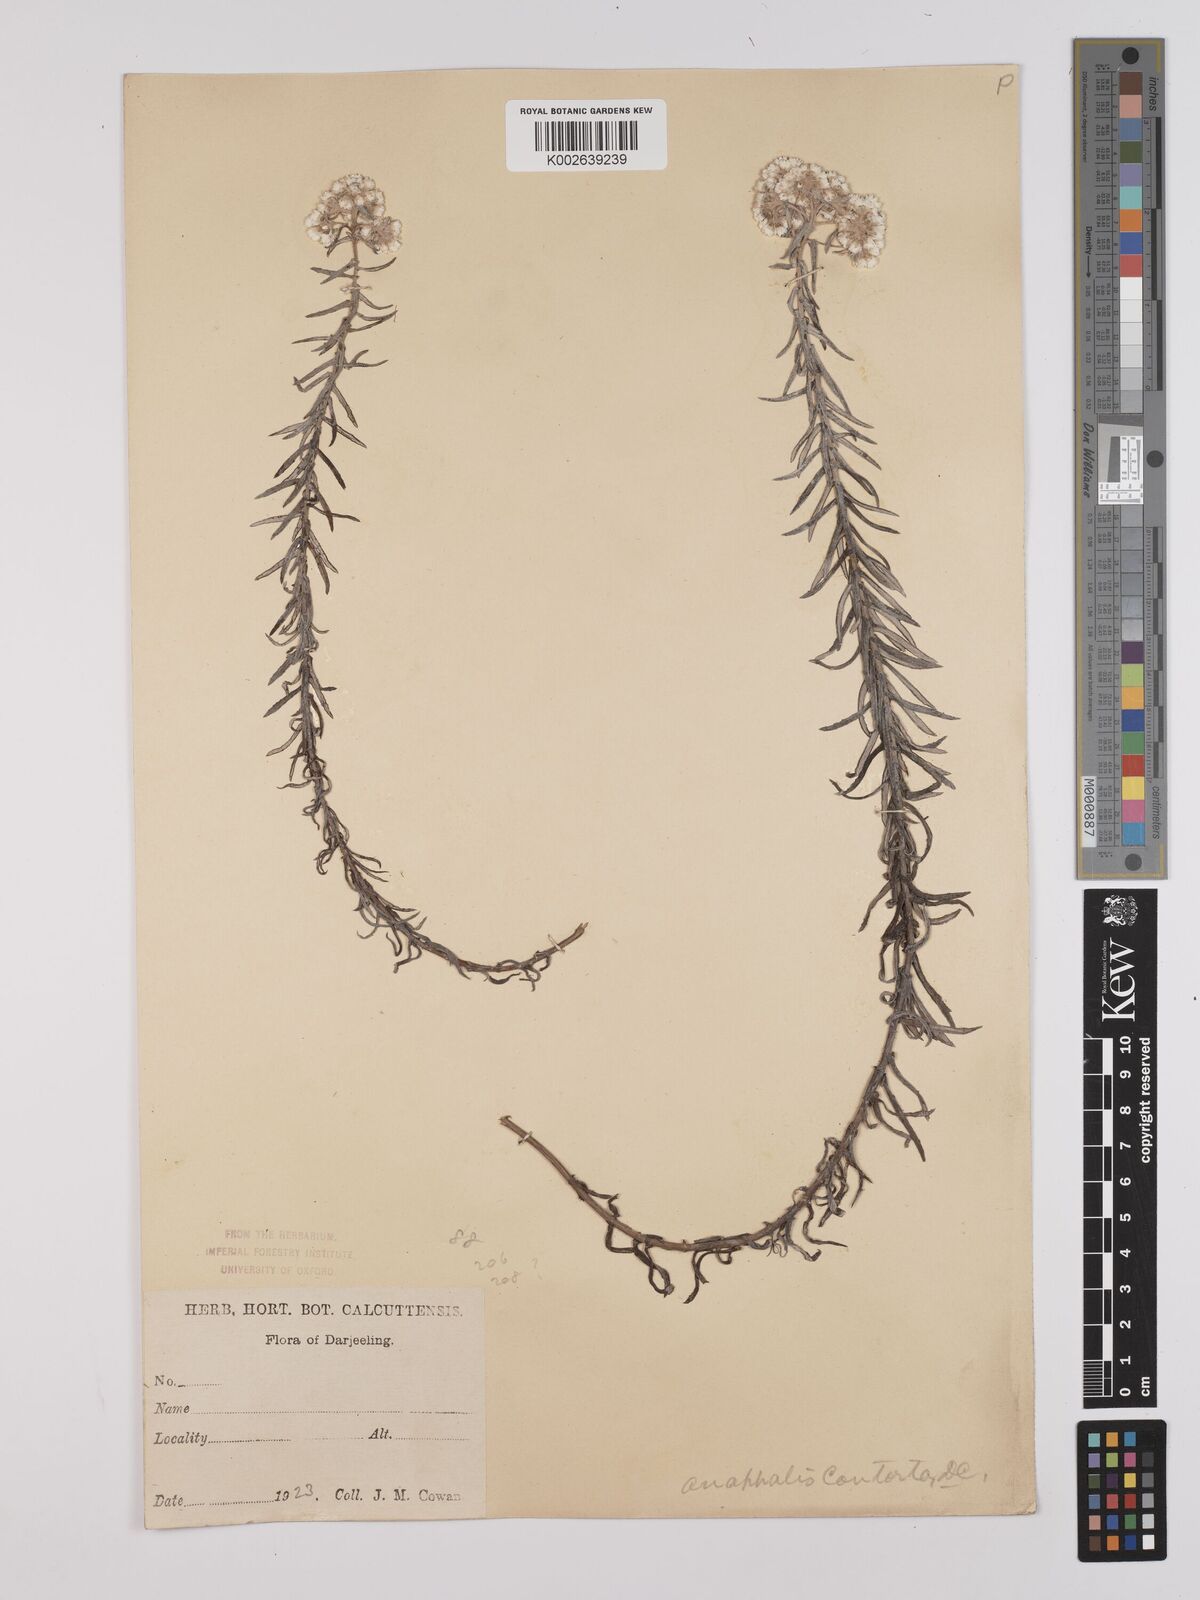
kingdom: Plantae
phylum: Tracheophyta
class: Magnoliopsida
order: Asterales
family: Asteraceae
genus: Anaphalis
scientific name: Anaphalis contorta
